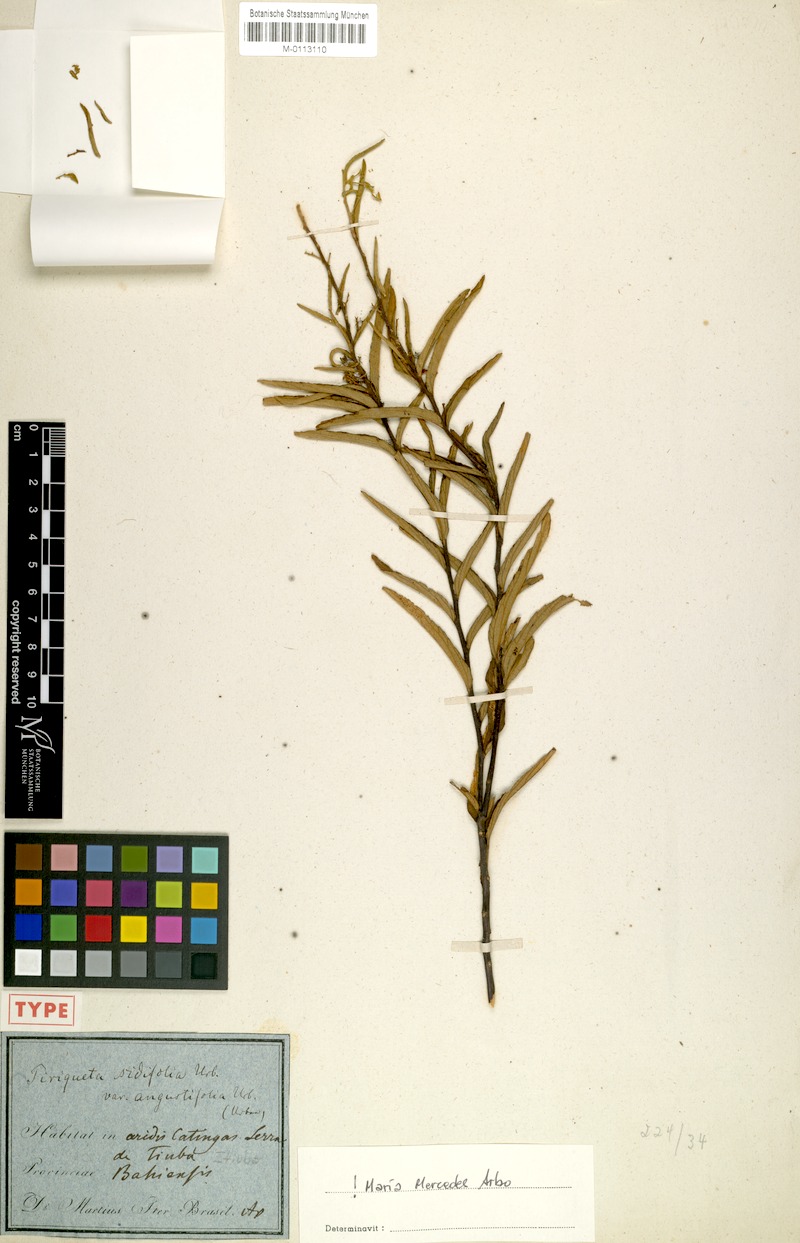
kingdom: Plantae
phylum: Tracheophyta
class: Magnoliopsida
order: Malpighiales
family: Turneraceae
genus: Piriqueta
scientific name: Piriqueta sidifolia
